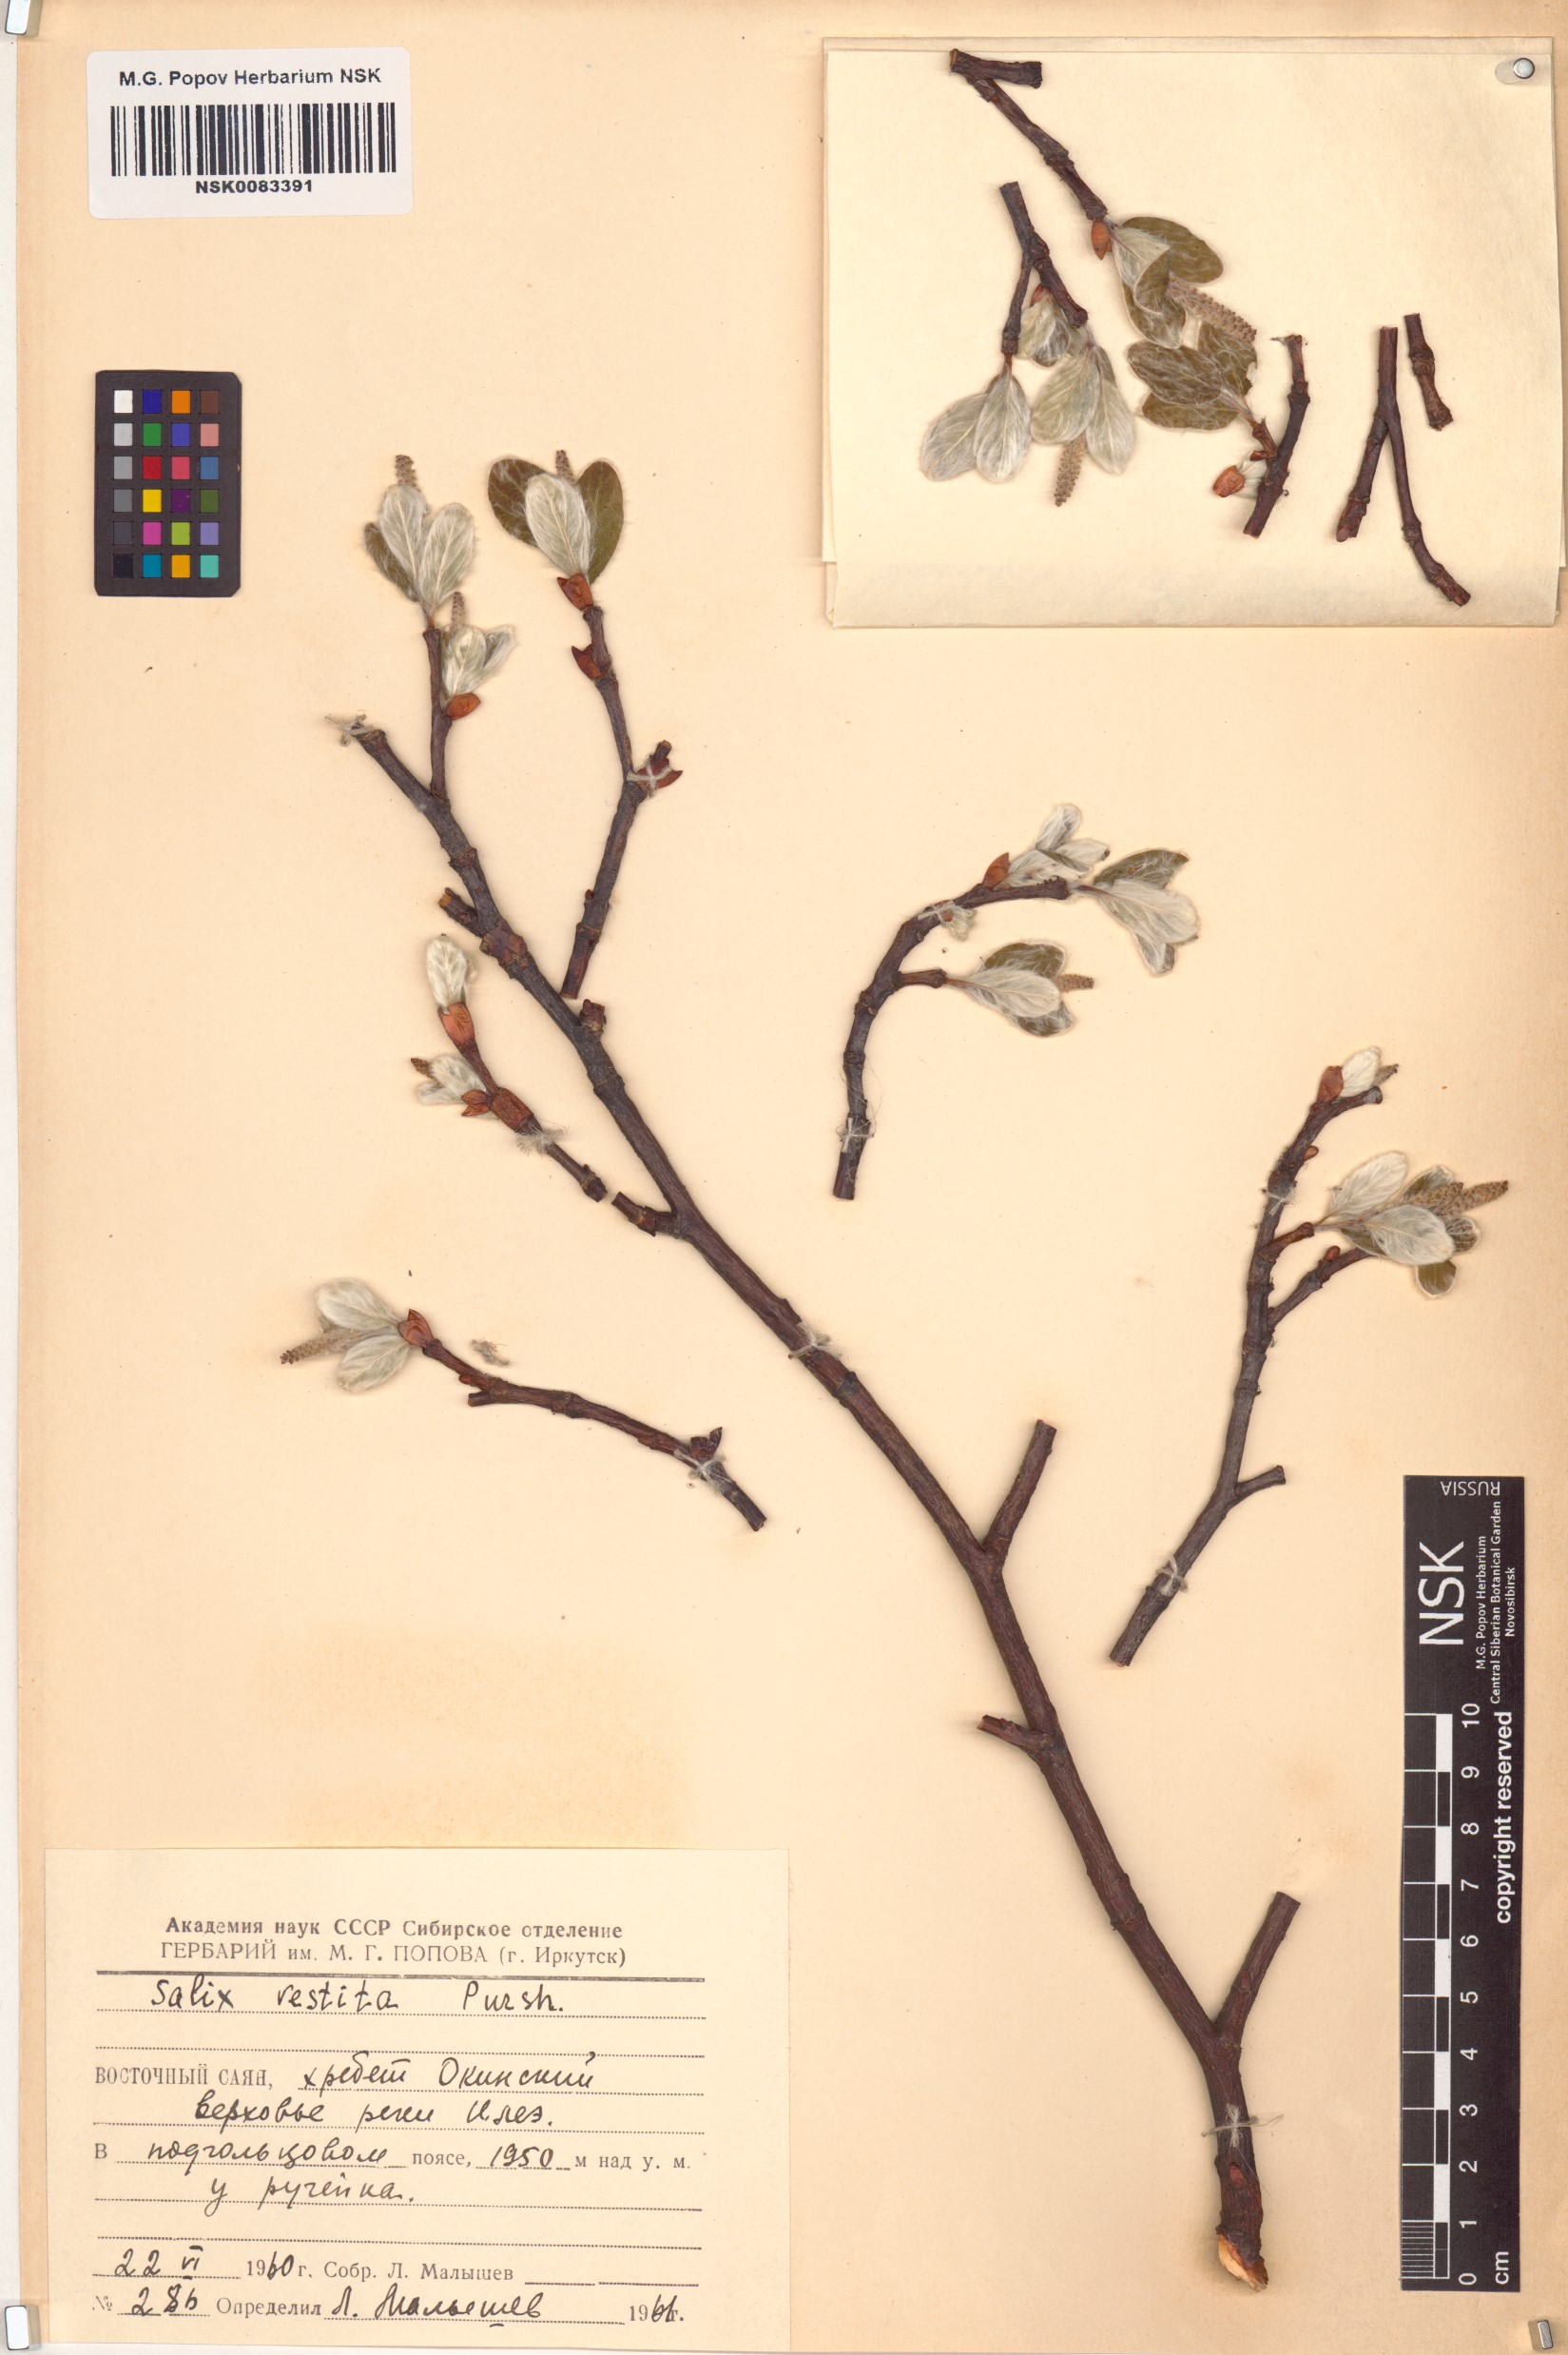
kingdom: Plantae
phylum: Tracheophyta
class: Magnoliopsida
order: Malpighiales
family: Salicaceae
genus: Salix
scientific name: Salix vestita
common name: Hairy willow
